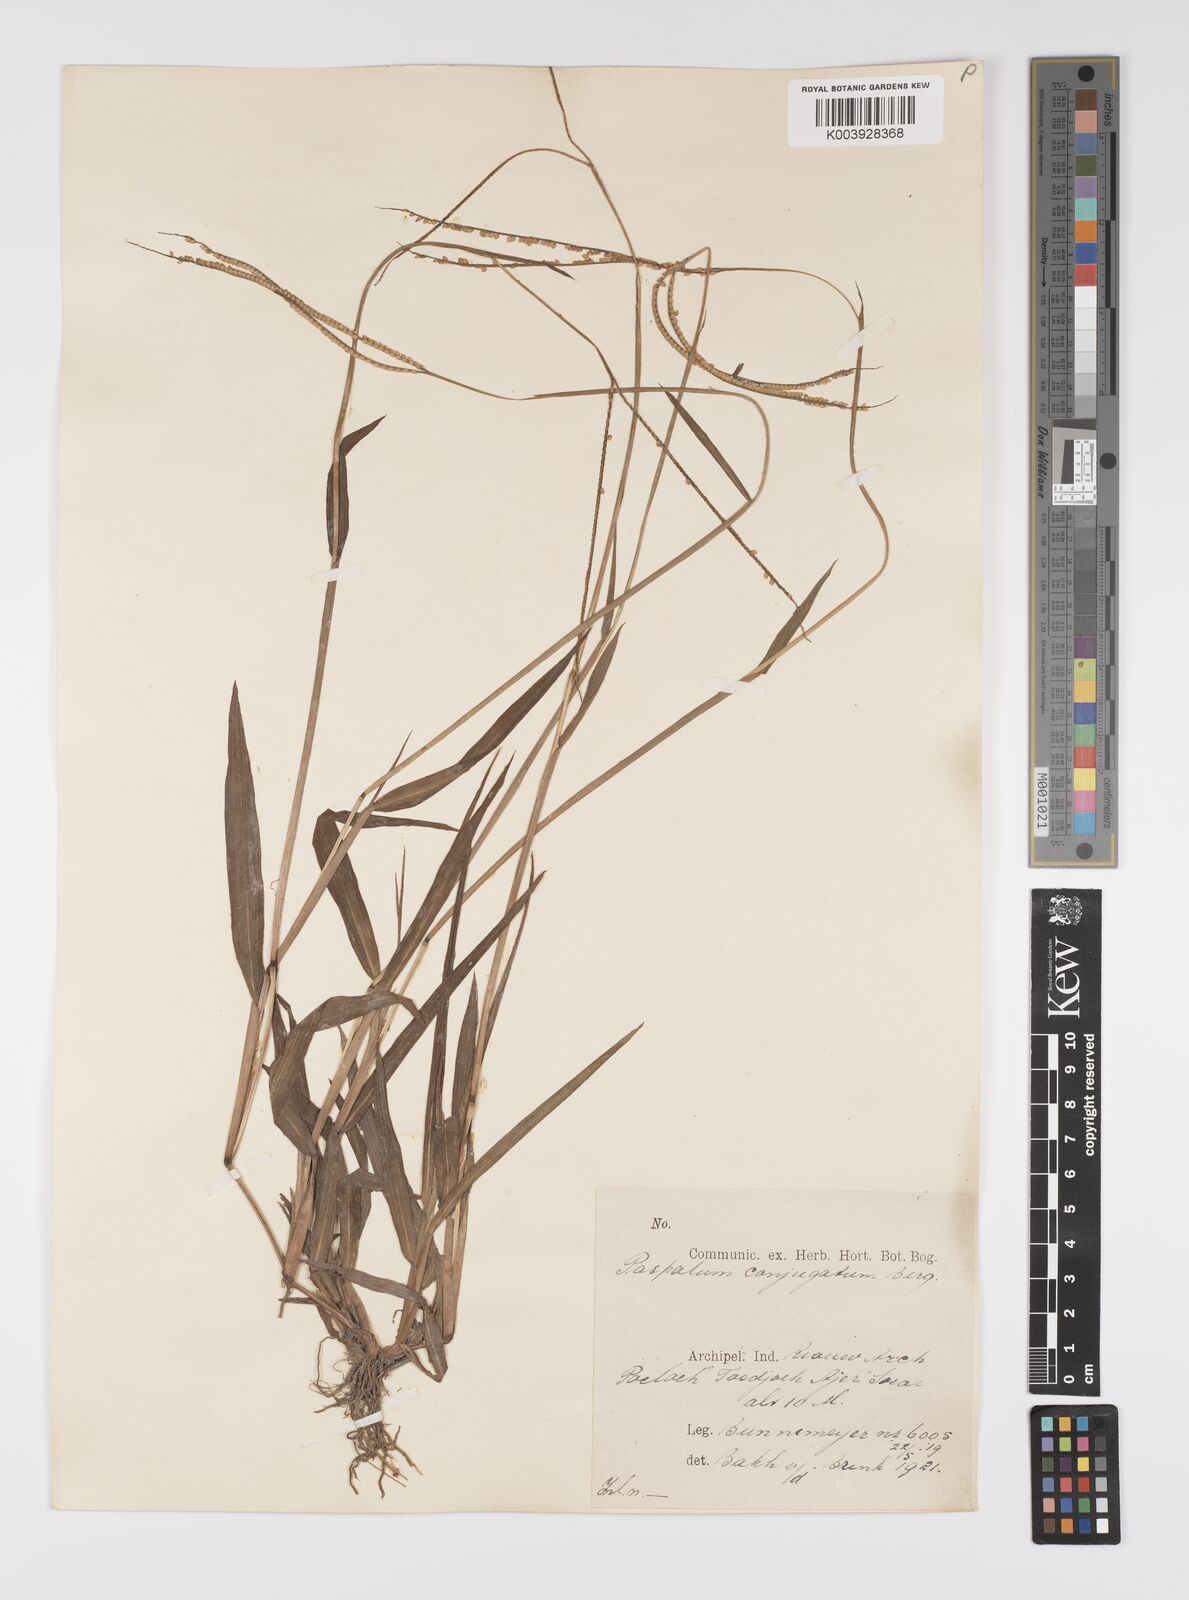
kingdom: Plantae
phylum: Tracheophyta
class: Liliopsida
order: Poales
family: Poaceae
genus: Paspalum
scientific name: Paspalum conjugatum
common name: Hilograss
